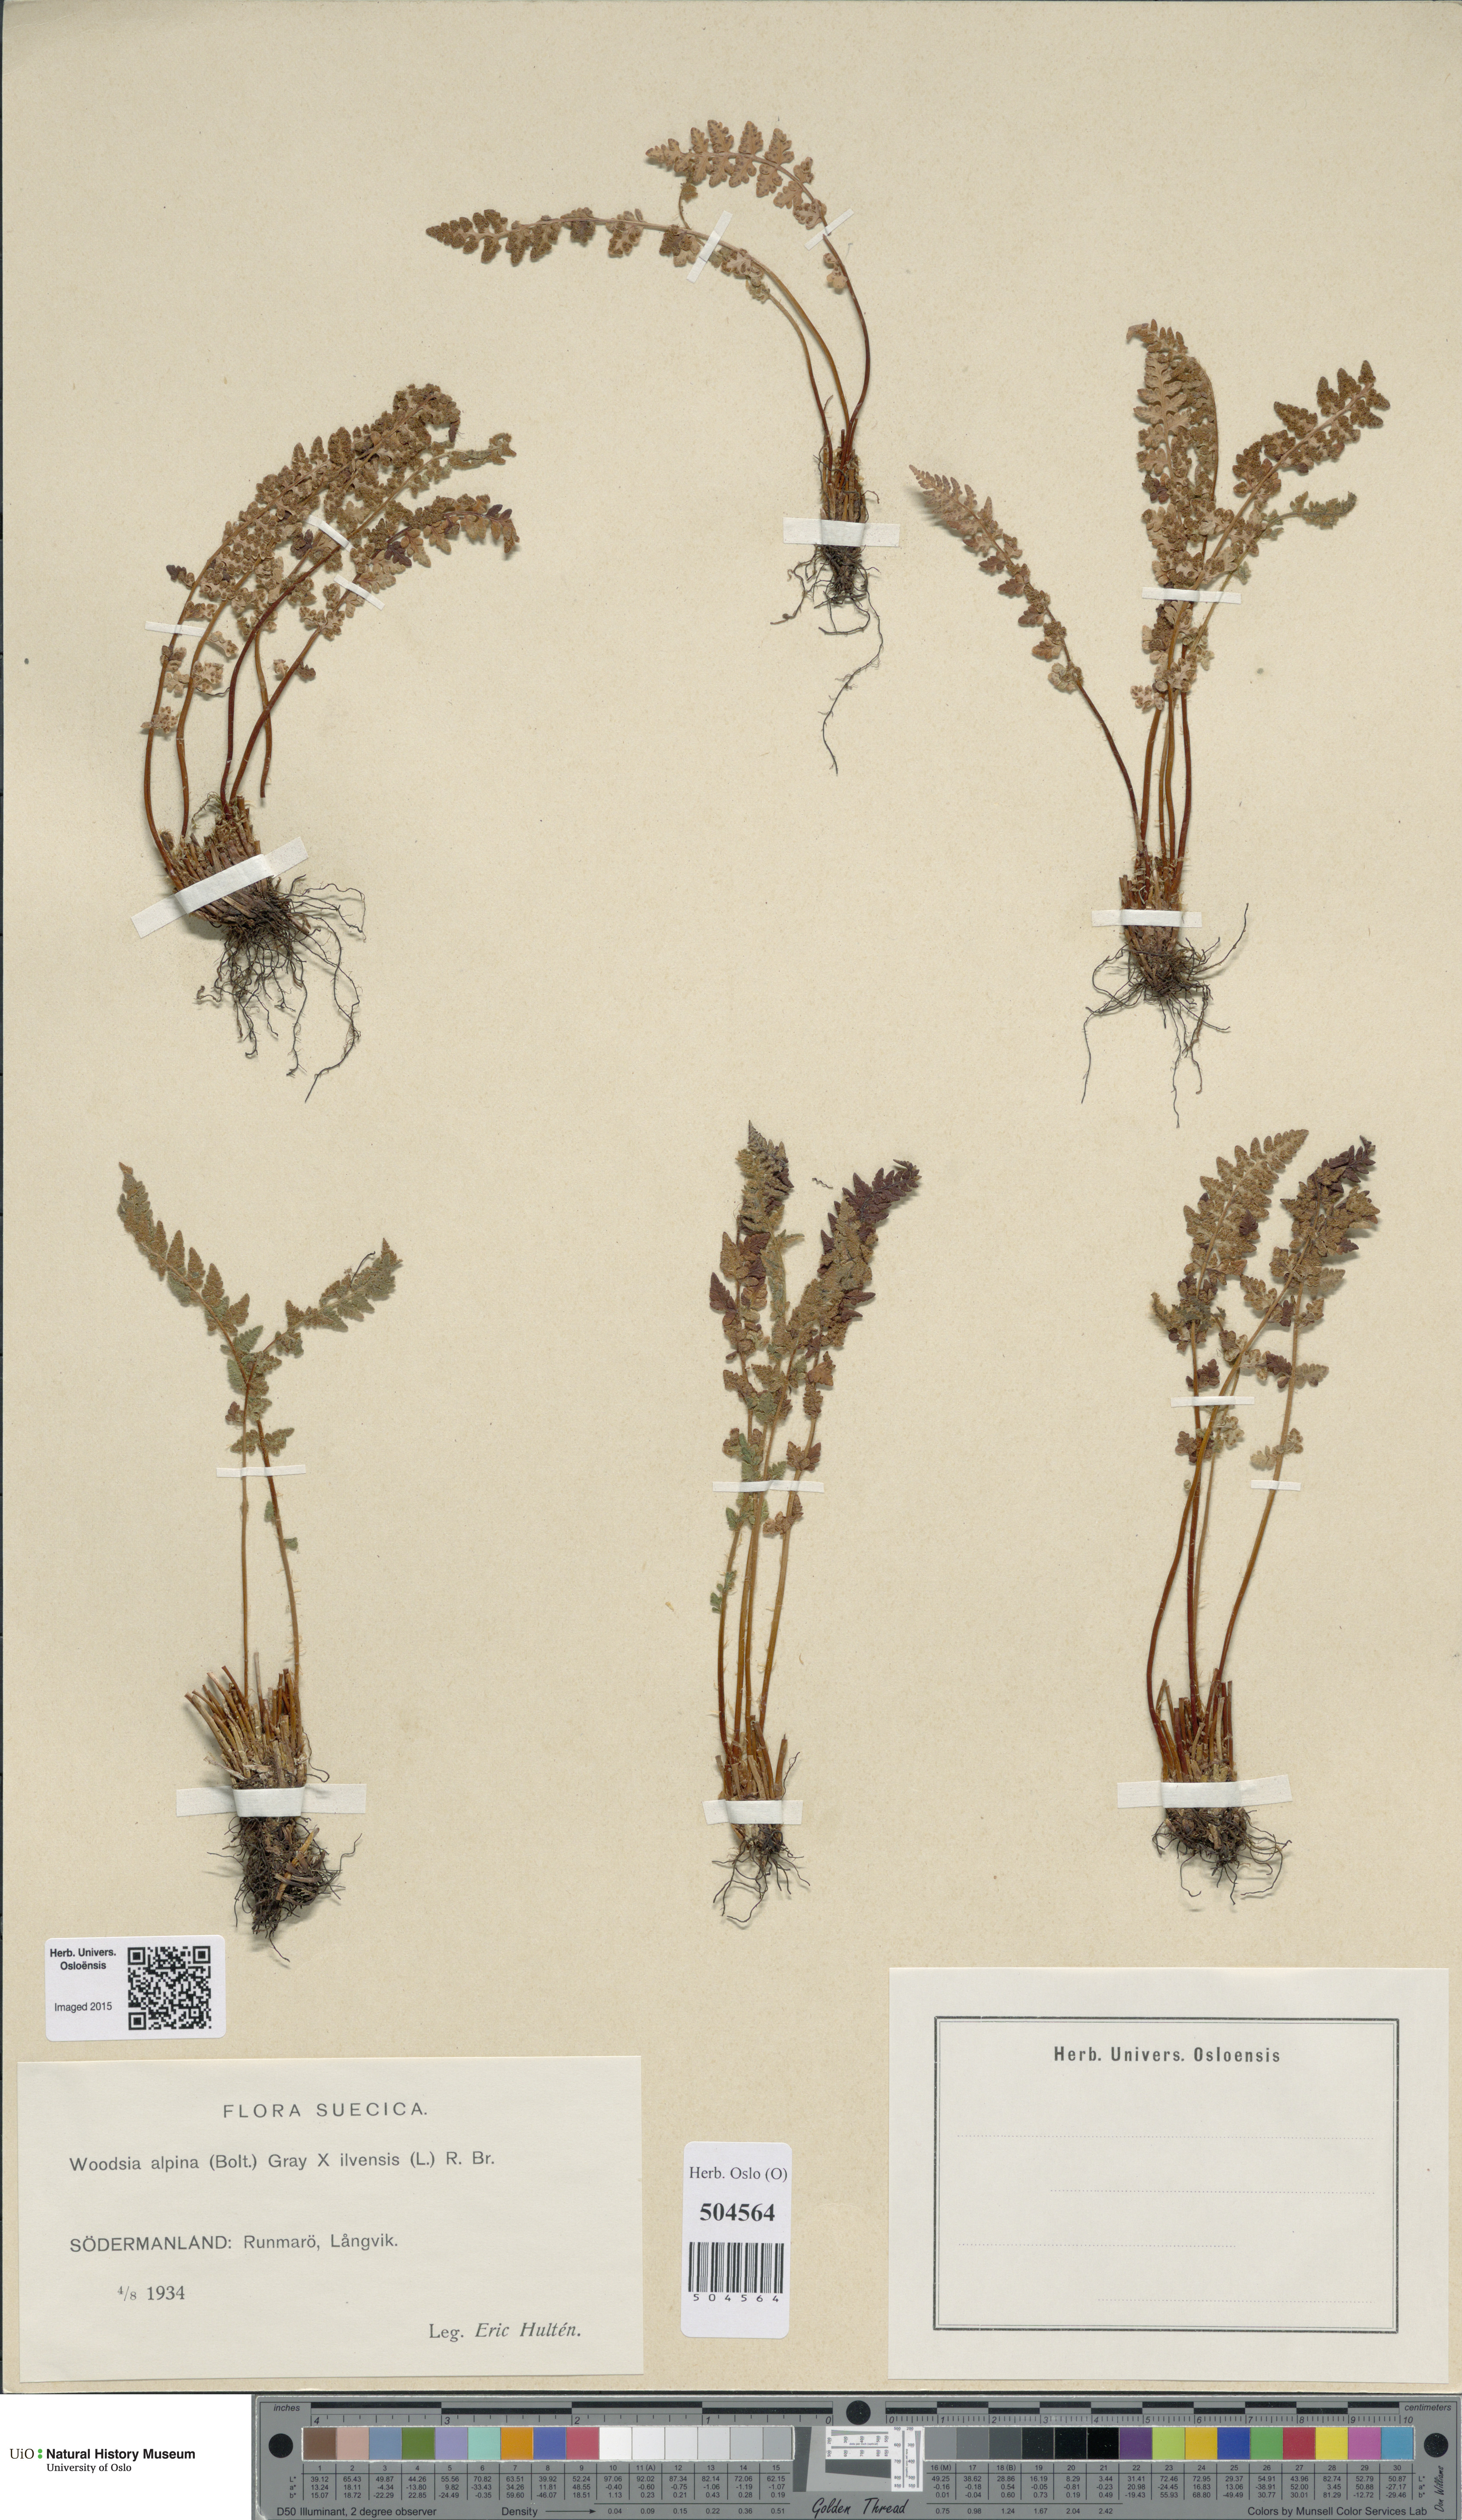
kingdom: Plantae
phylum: Tracheophyta
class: Polypodiopsida
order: Polypodiales
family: Woodsiaceae
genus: Woodsia
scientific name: Woodsia
